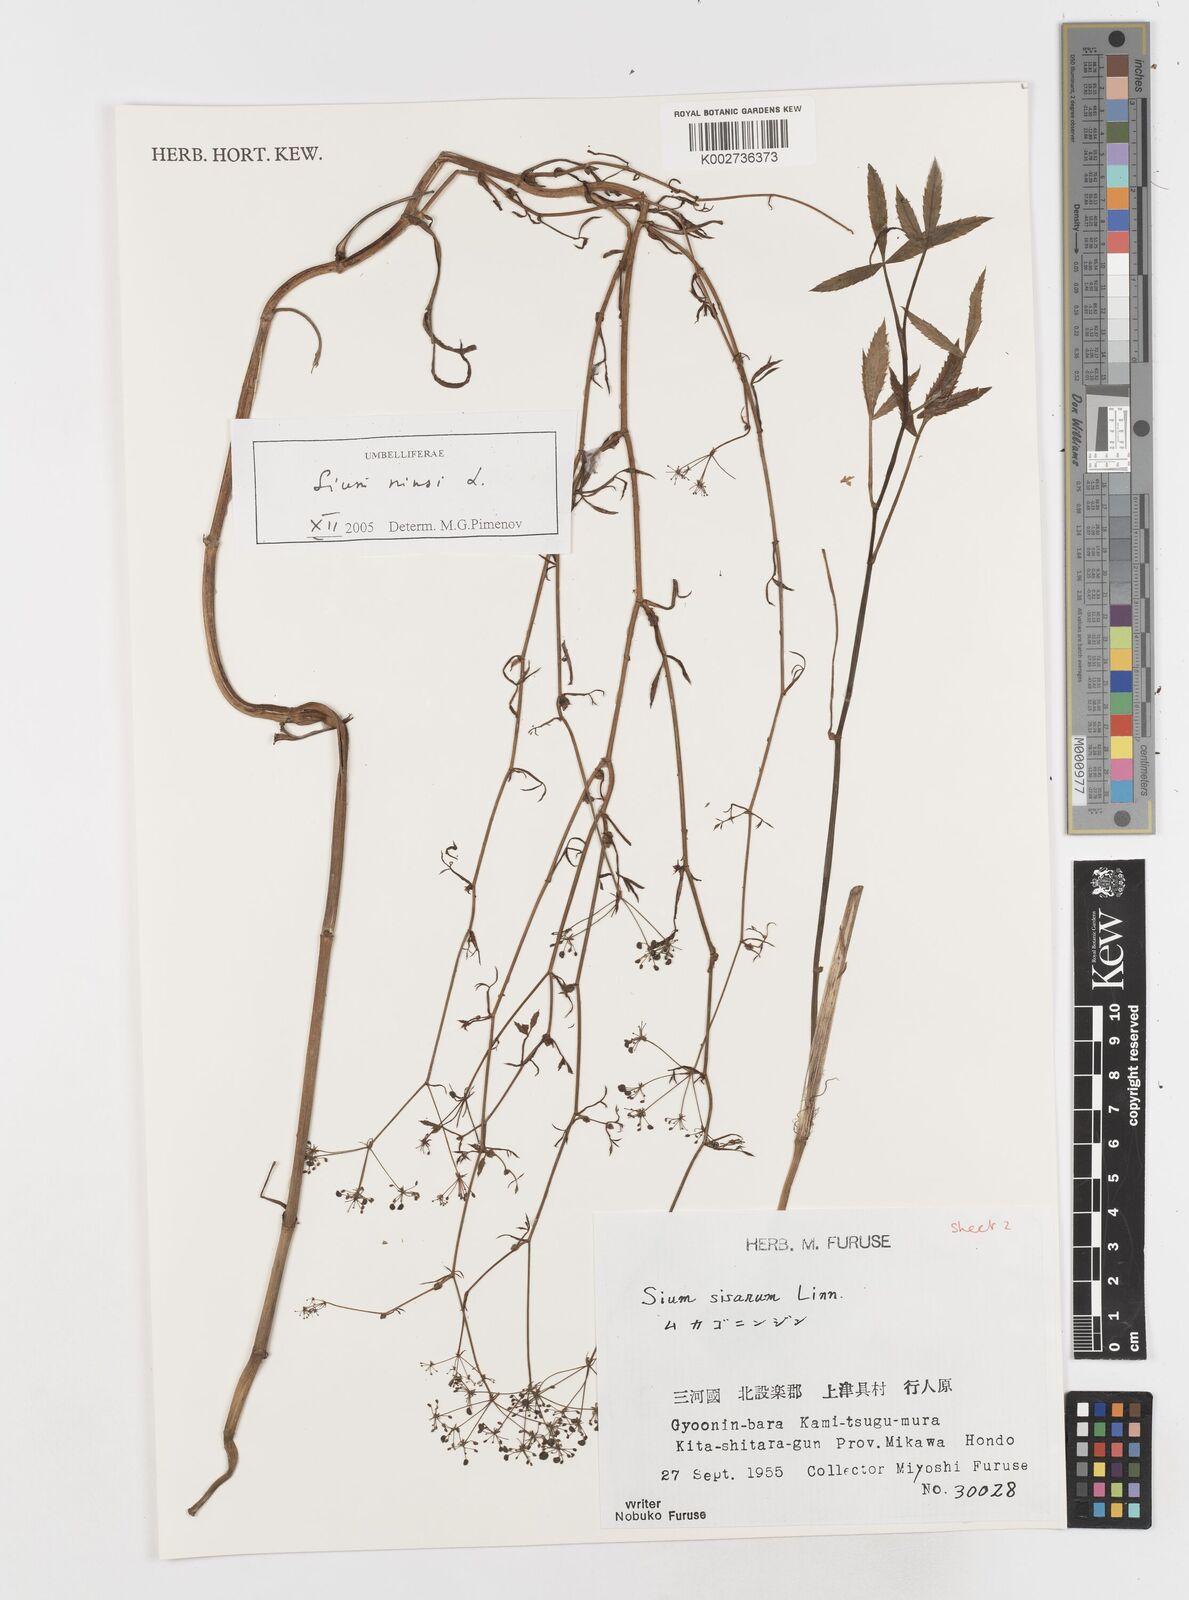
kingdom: Plantae
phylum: Tracheophyta
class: Magnoliopsida
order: Apiales
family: Apiaceae
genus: Sium
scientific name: Sium ninsi
